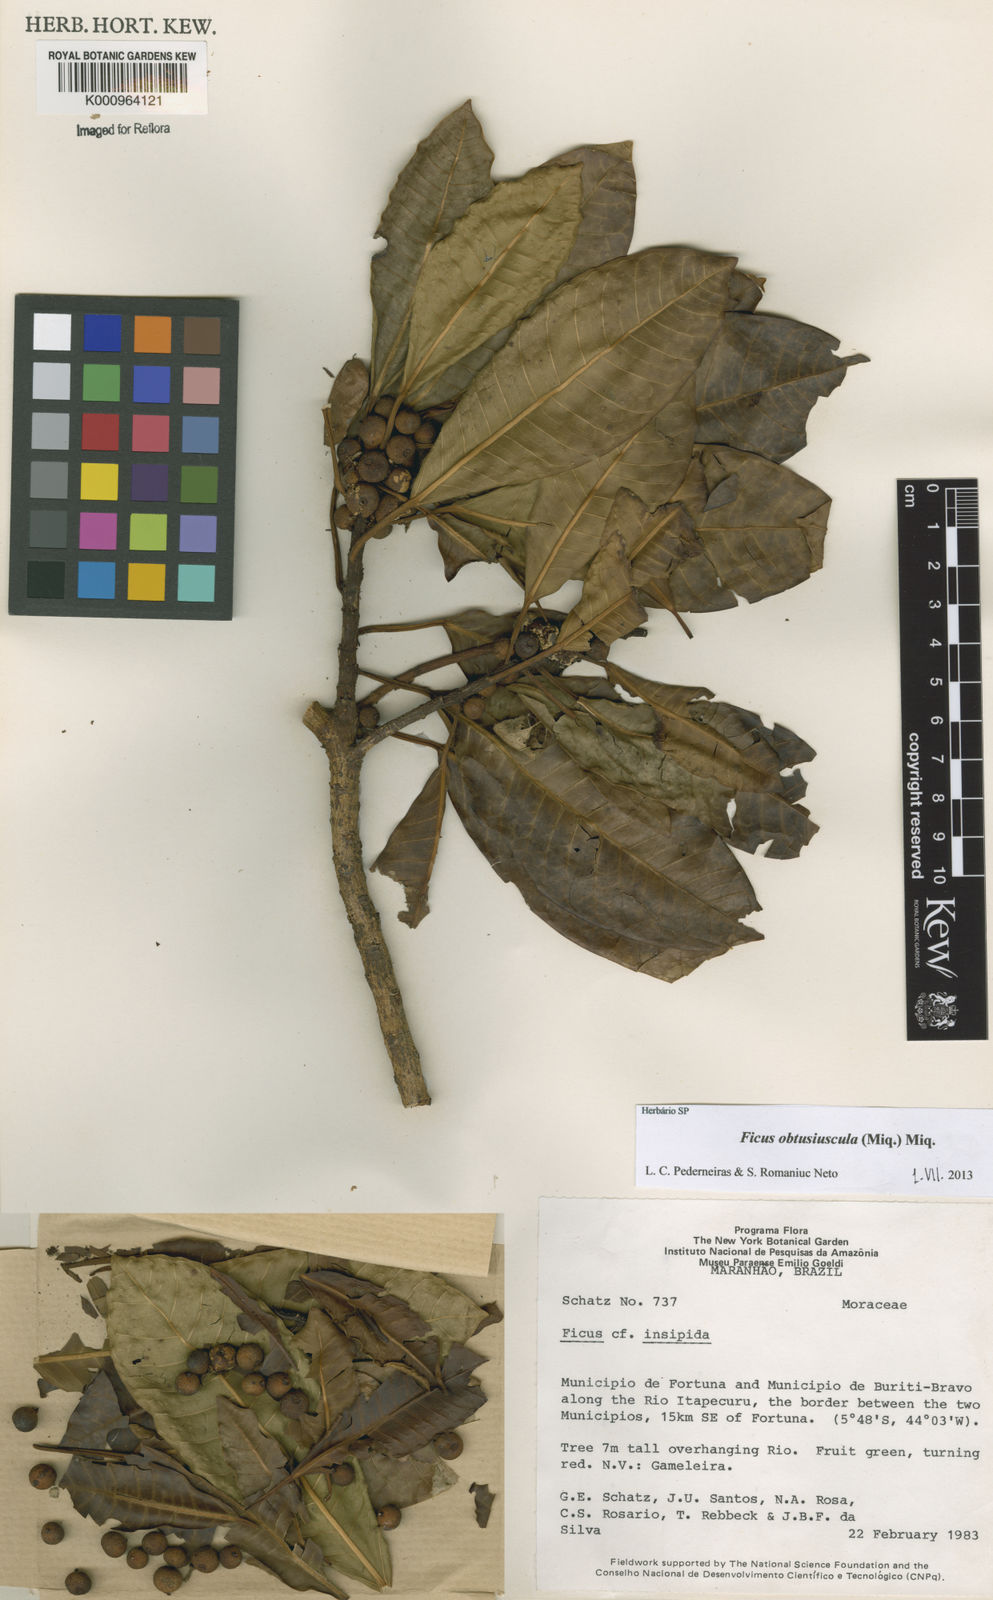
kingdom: Plantae
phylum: Tracheophyta
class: Magnoliopsida
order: Rosales
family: Moraceae
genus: Ficus
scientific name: Ficus obtusiuscula
